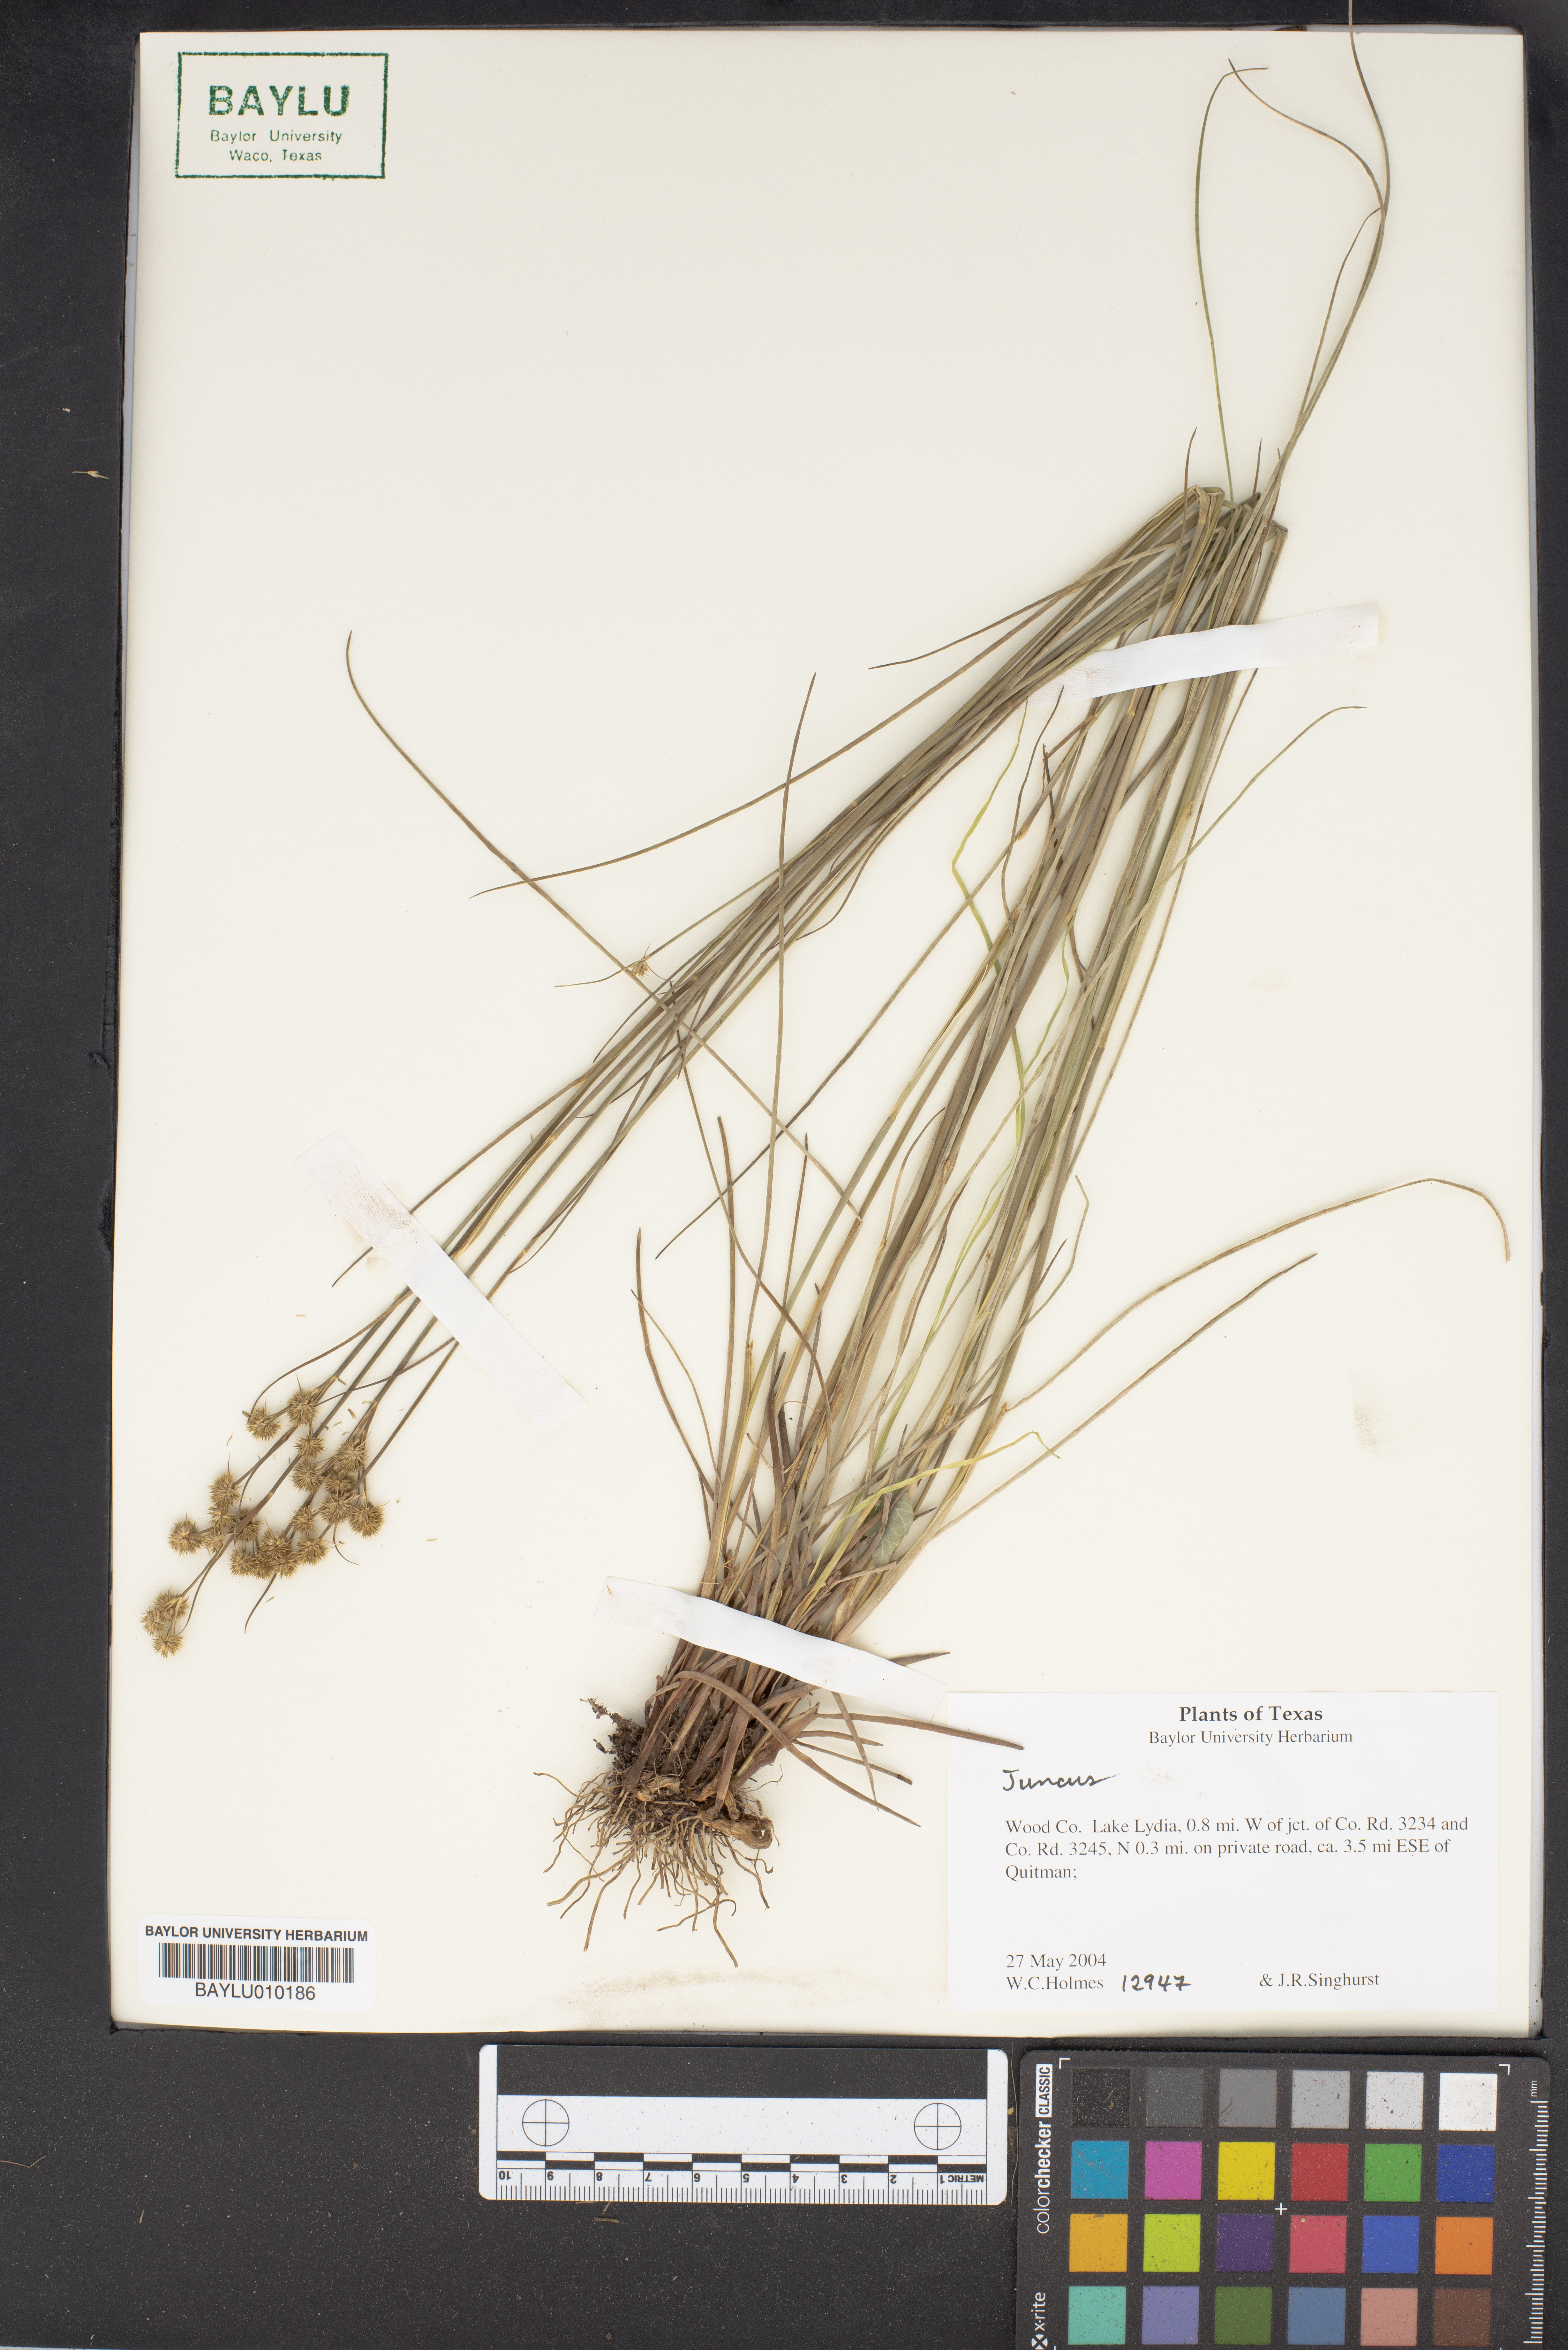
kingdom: Plantae
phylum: Tracheophyta
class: Liliopsida
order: Poales
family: Juncaceae
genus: Juncus
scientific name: Juncus
